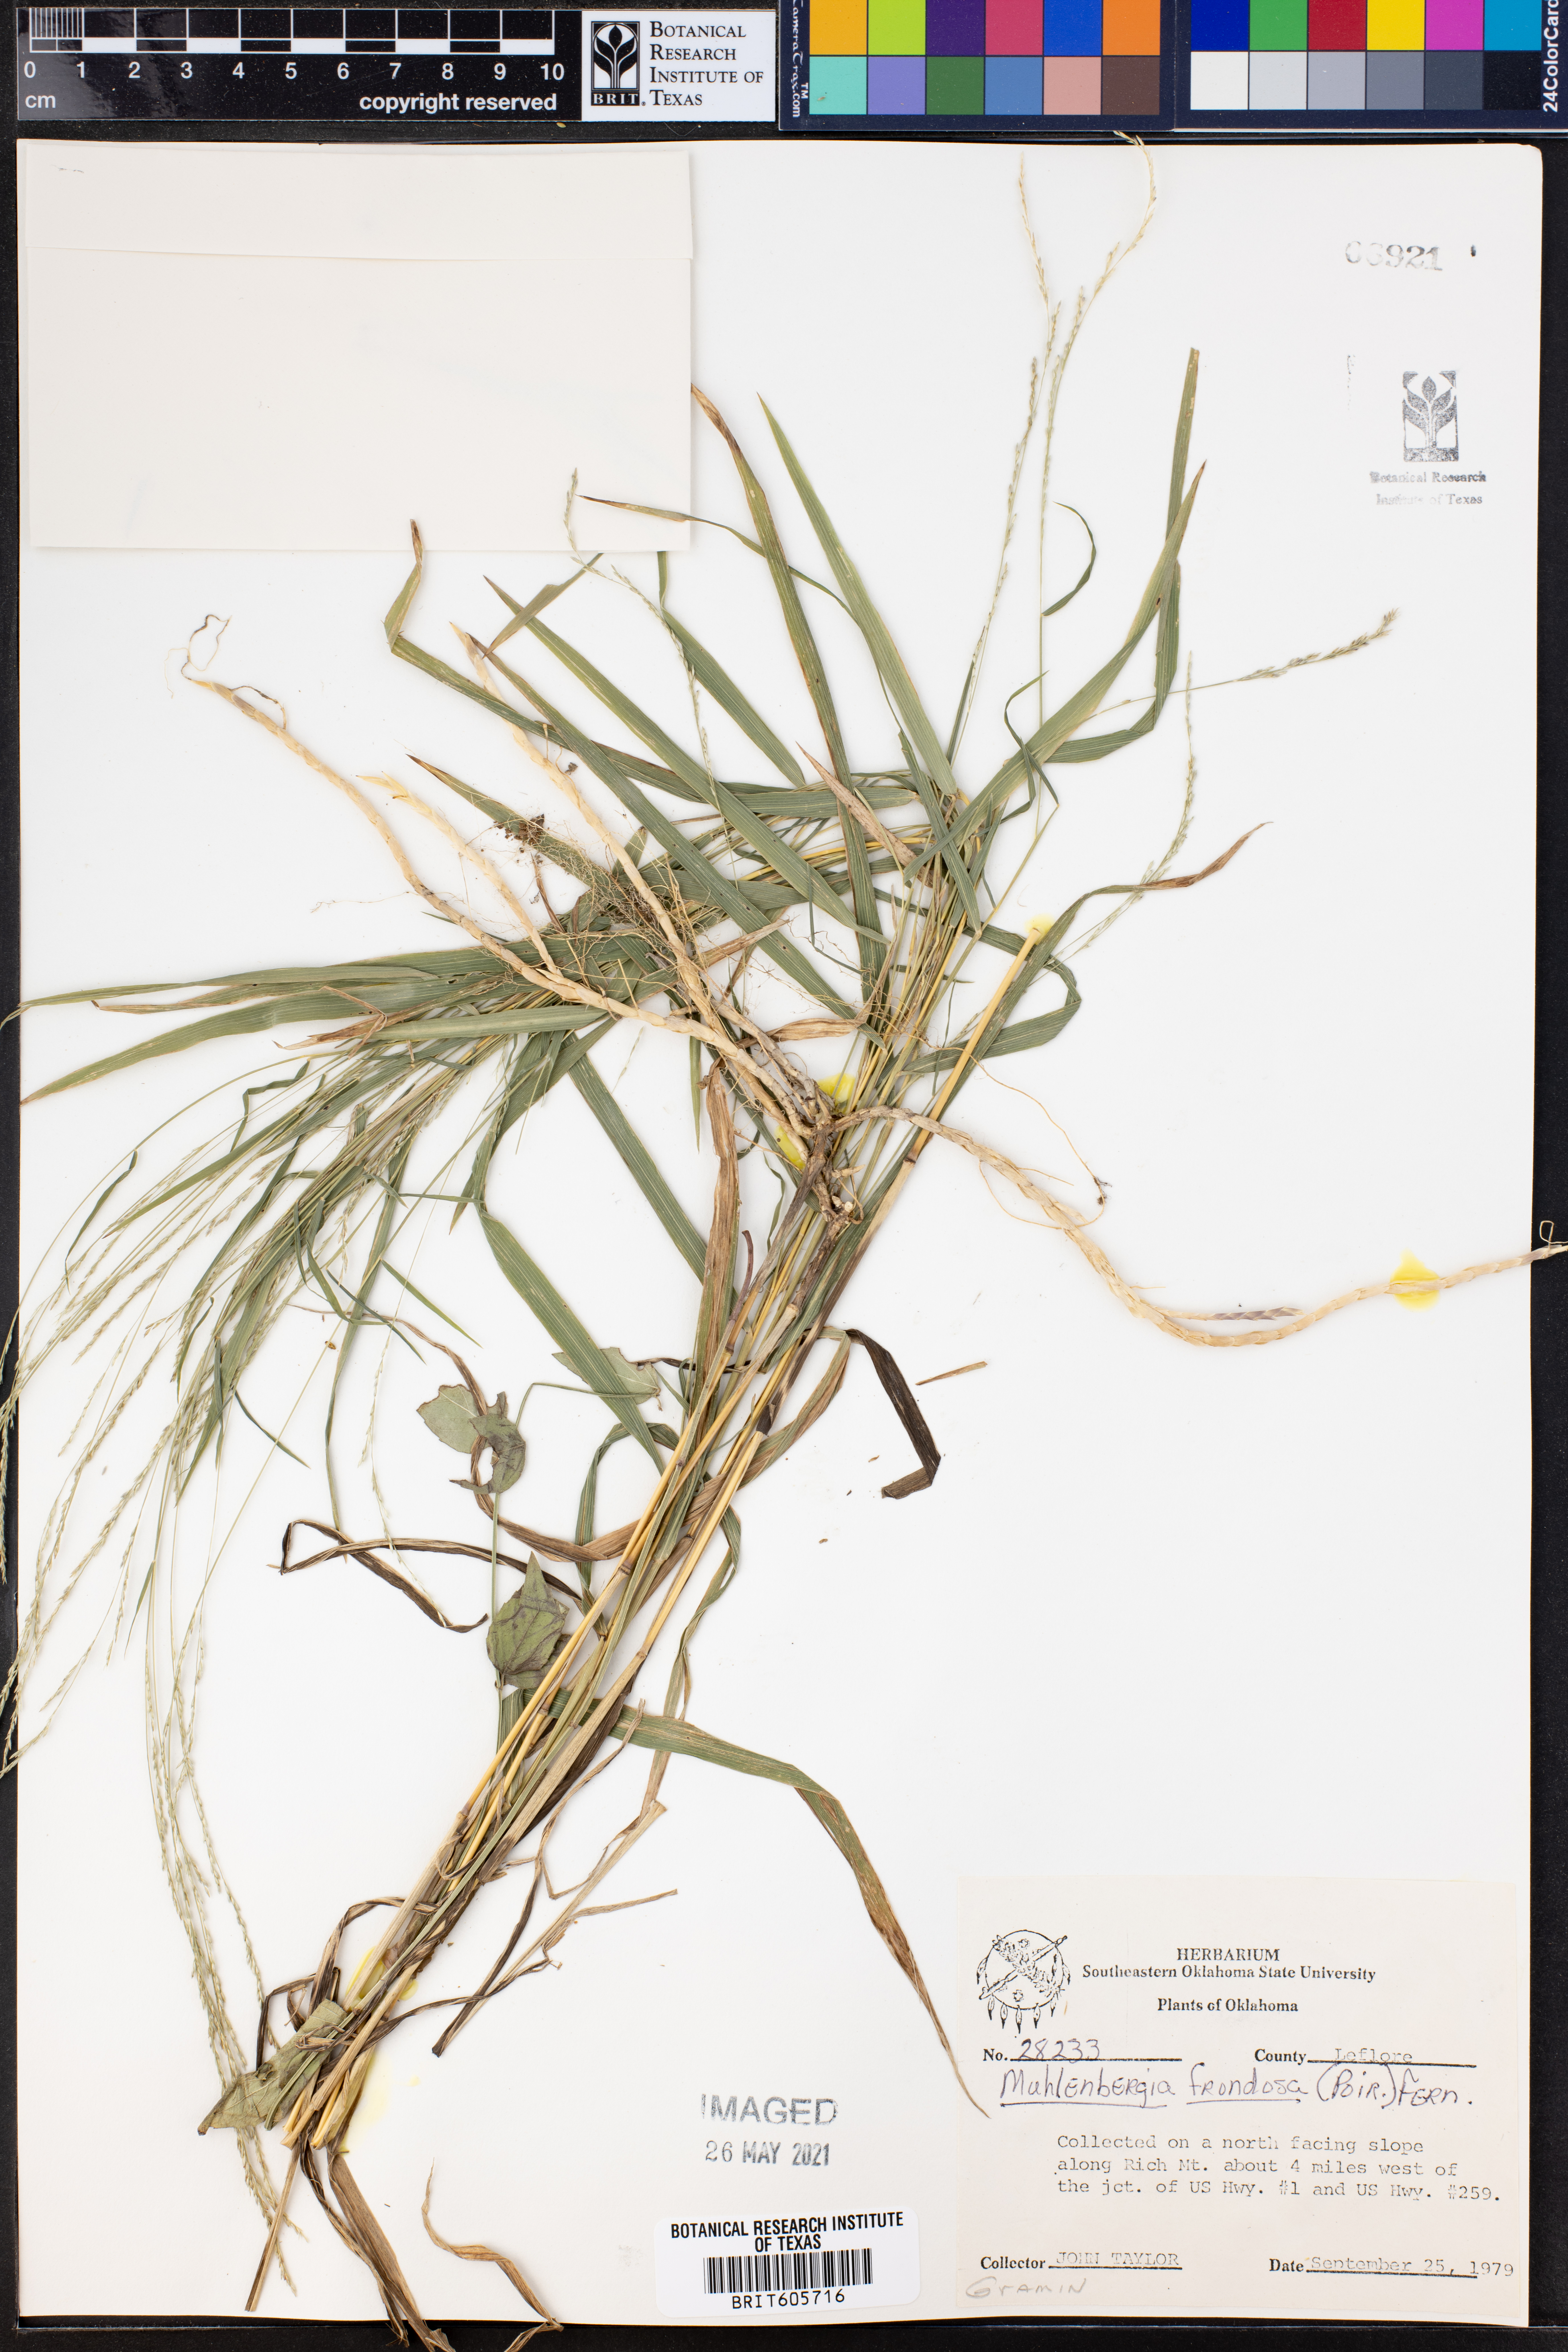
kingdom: Plantae
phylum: Tracheophyta
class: Liliopsida
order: Poales
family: Poaceae
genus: Muhlenbergia
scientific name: Muhlenbergia frondosa
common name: Common satingrass
